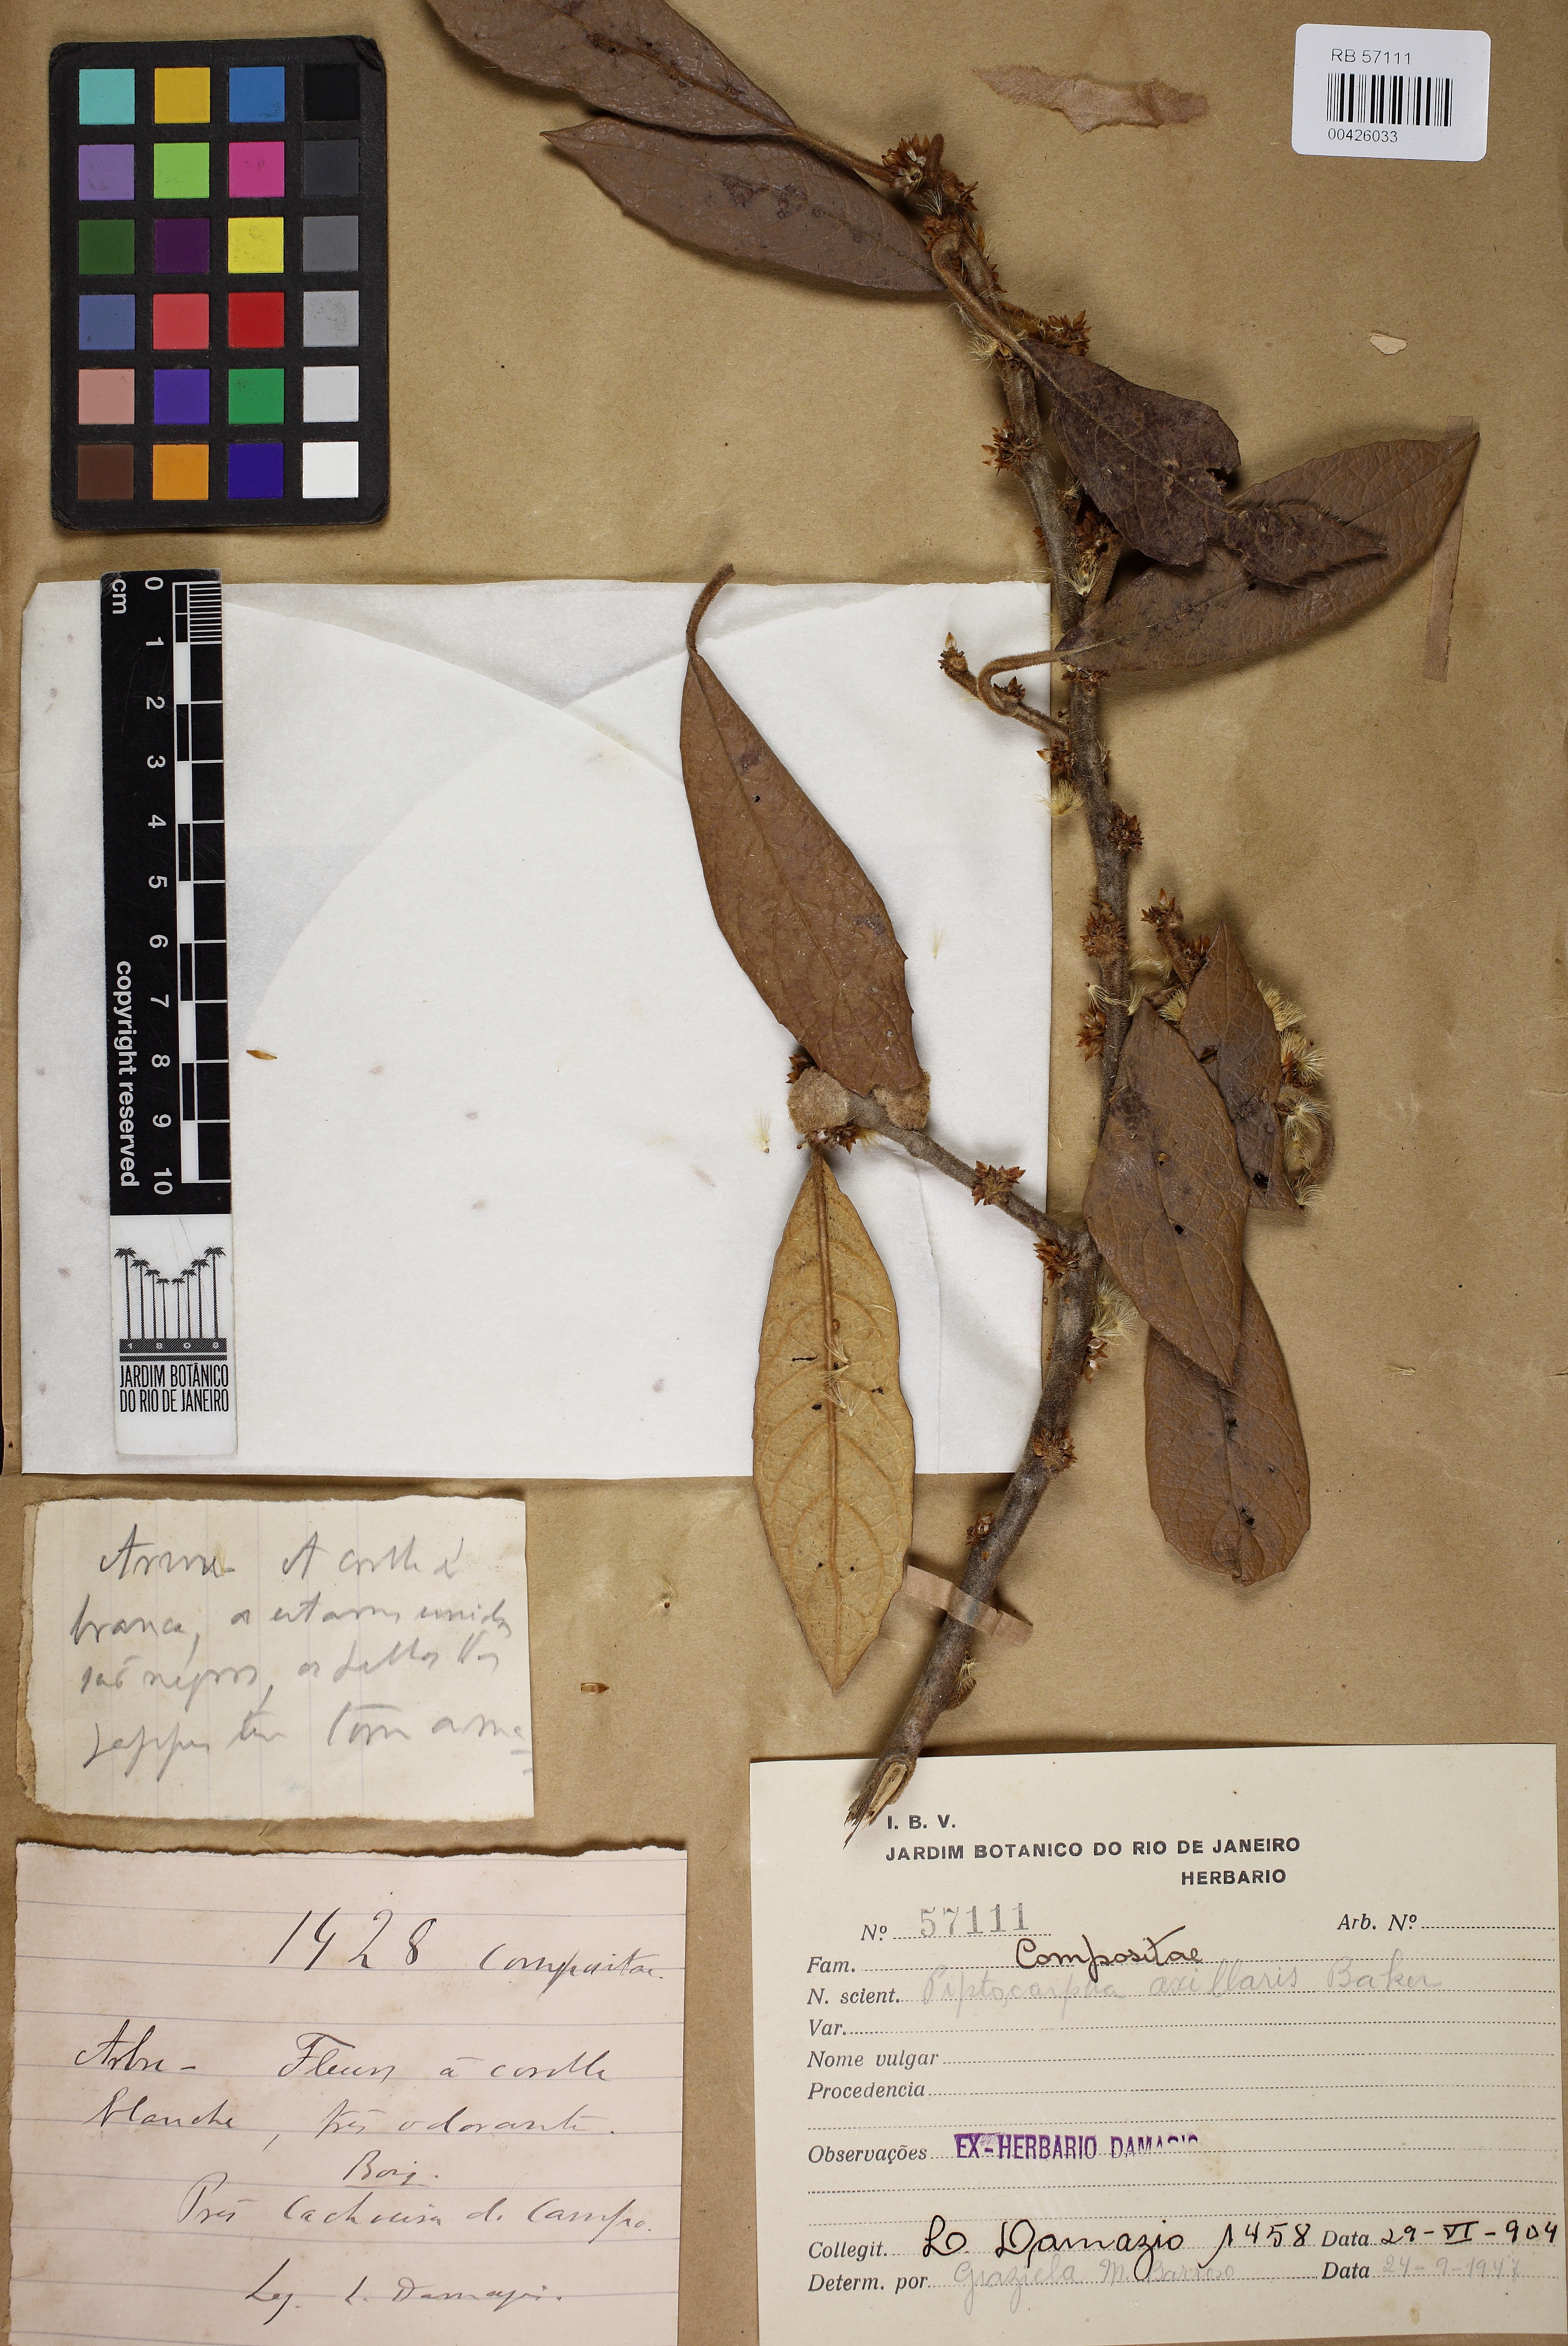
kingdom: Plantae
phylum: Tracheophyta
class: Magnoliopsida
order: Asterales
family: Asteraceae
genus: Piptocarpha
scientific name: Piptocarpha axillaris
